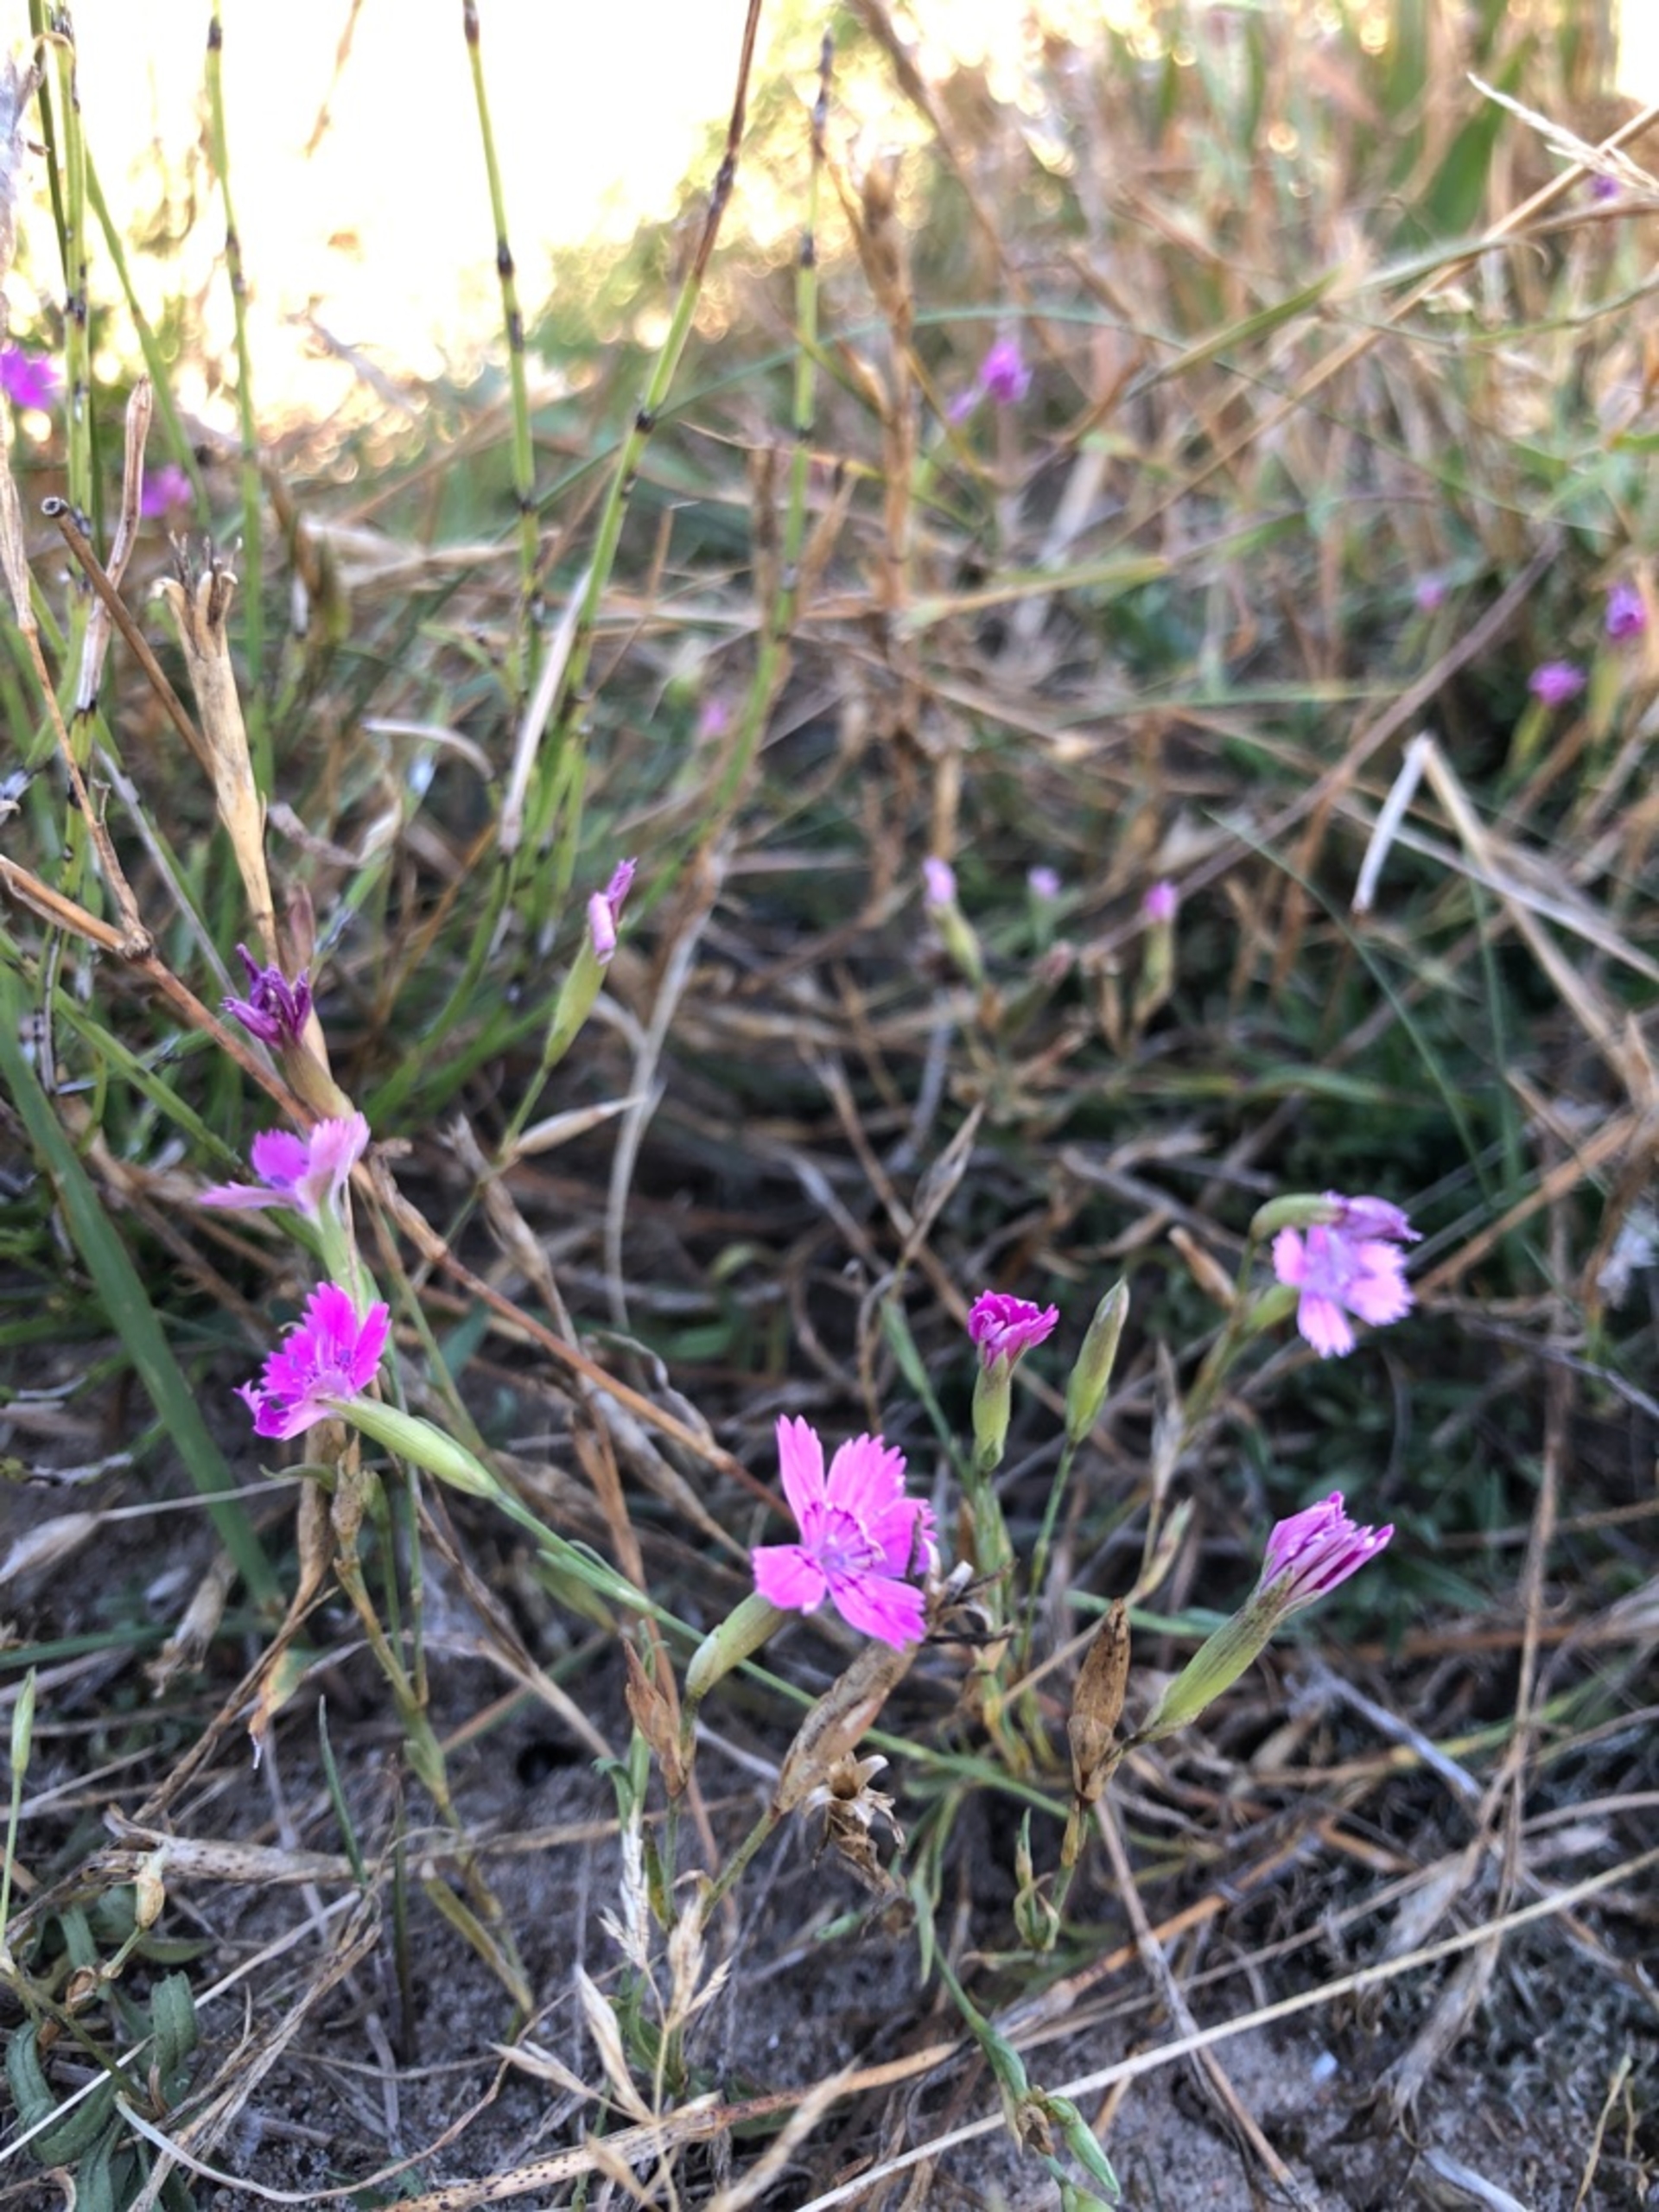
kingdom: Plantae
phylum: Tracheophyta
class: Magnoliopsida
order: Caryophyllales
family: Caryophyllaceae
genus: Dianthus
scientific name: Dianthus deltoides
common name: Bakke-nellike
